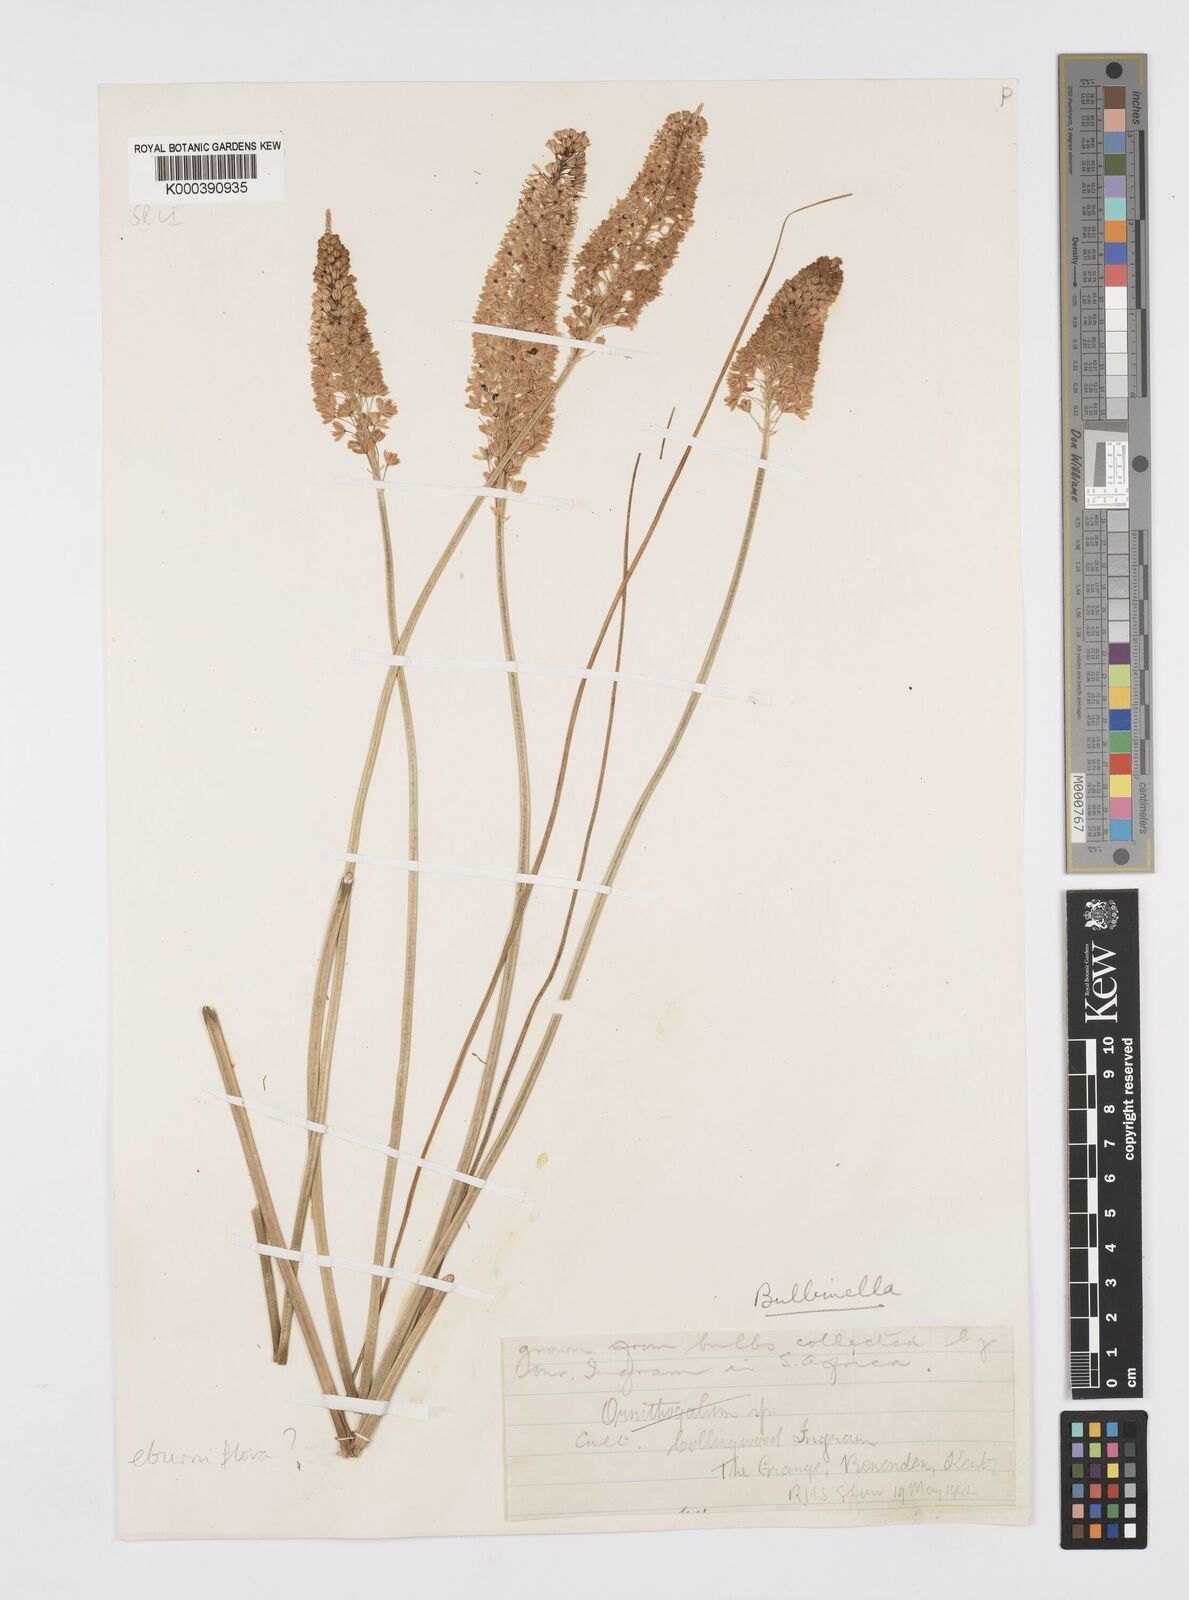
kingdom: Plantae
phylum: Tracheophyta
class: Liliopsida
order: Asparagales
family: Asphodelaceae
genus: Bulbinella
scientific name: Bulbinella eburniflora
